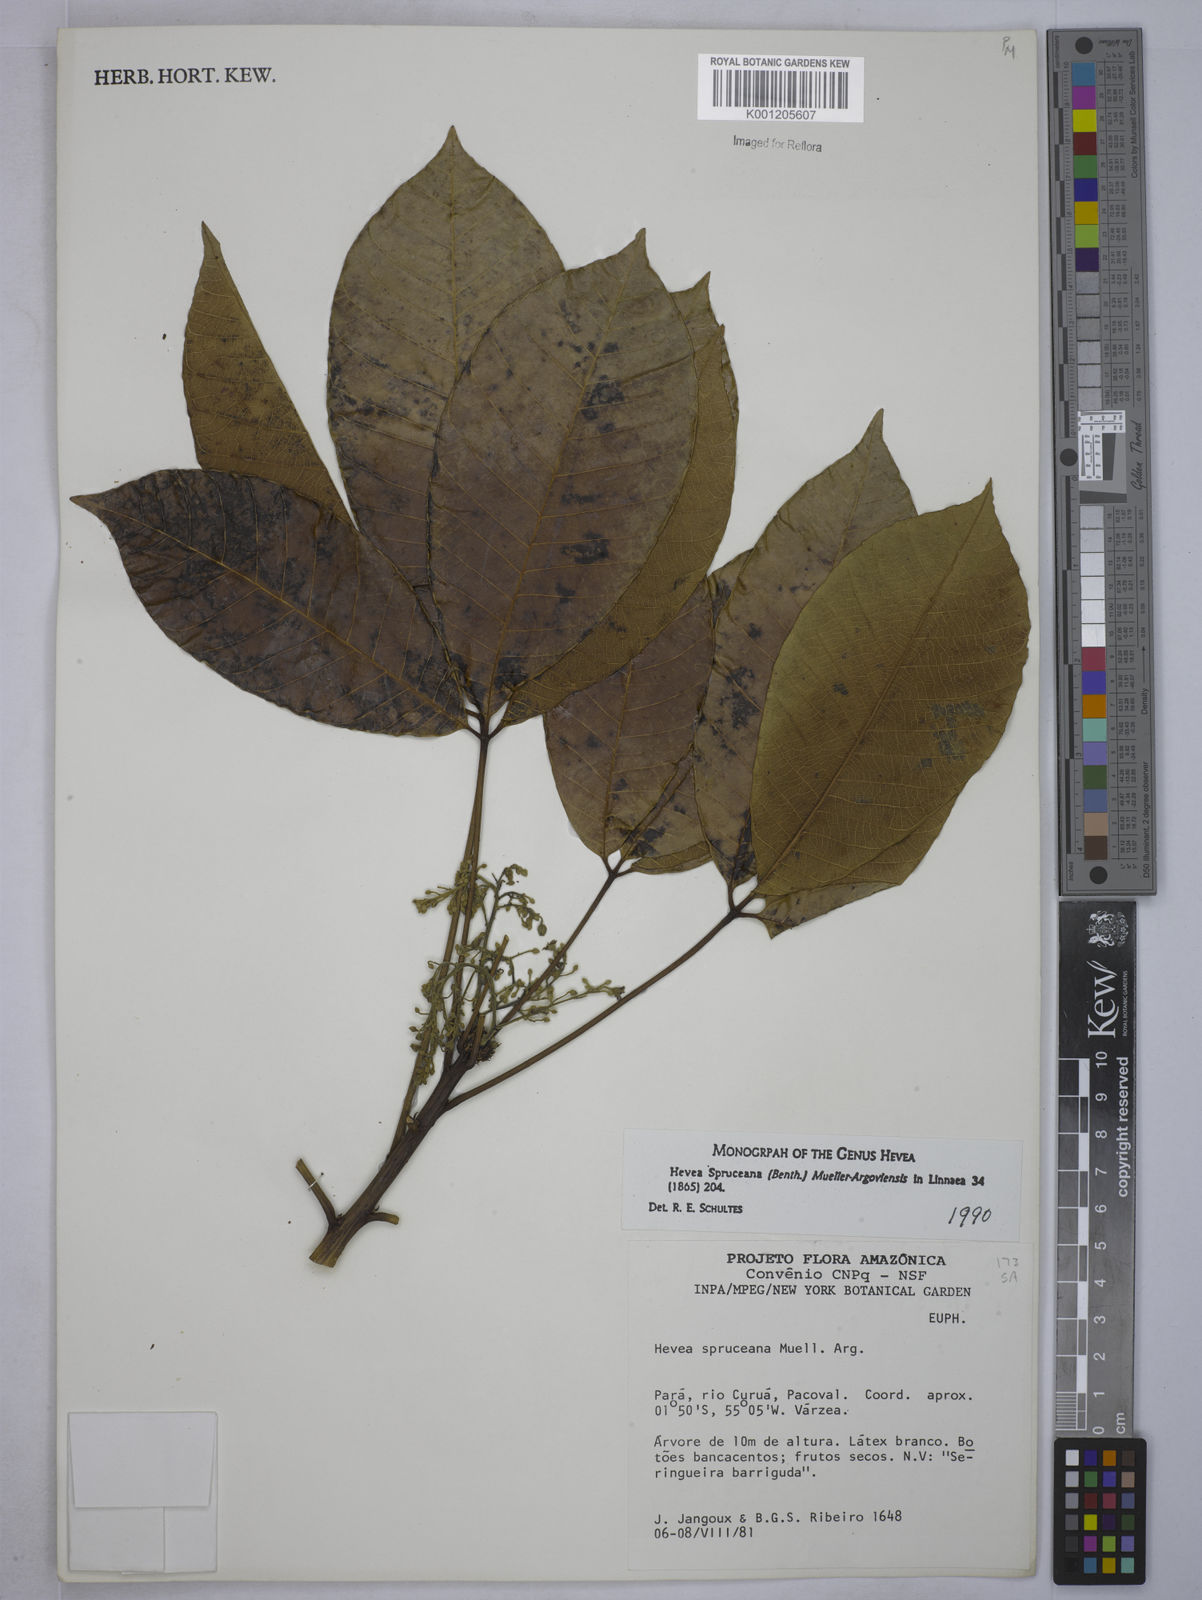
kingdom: Plantae
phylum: Tracheophyta
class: Magnoliopsida
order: Malpighiales
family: Euphorbiaceae
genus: Hevea
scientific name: Hevea
